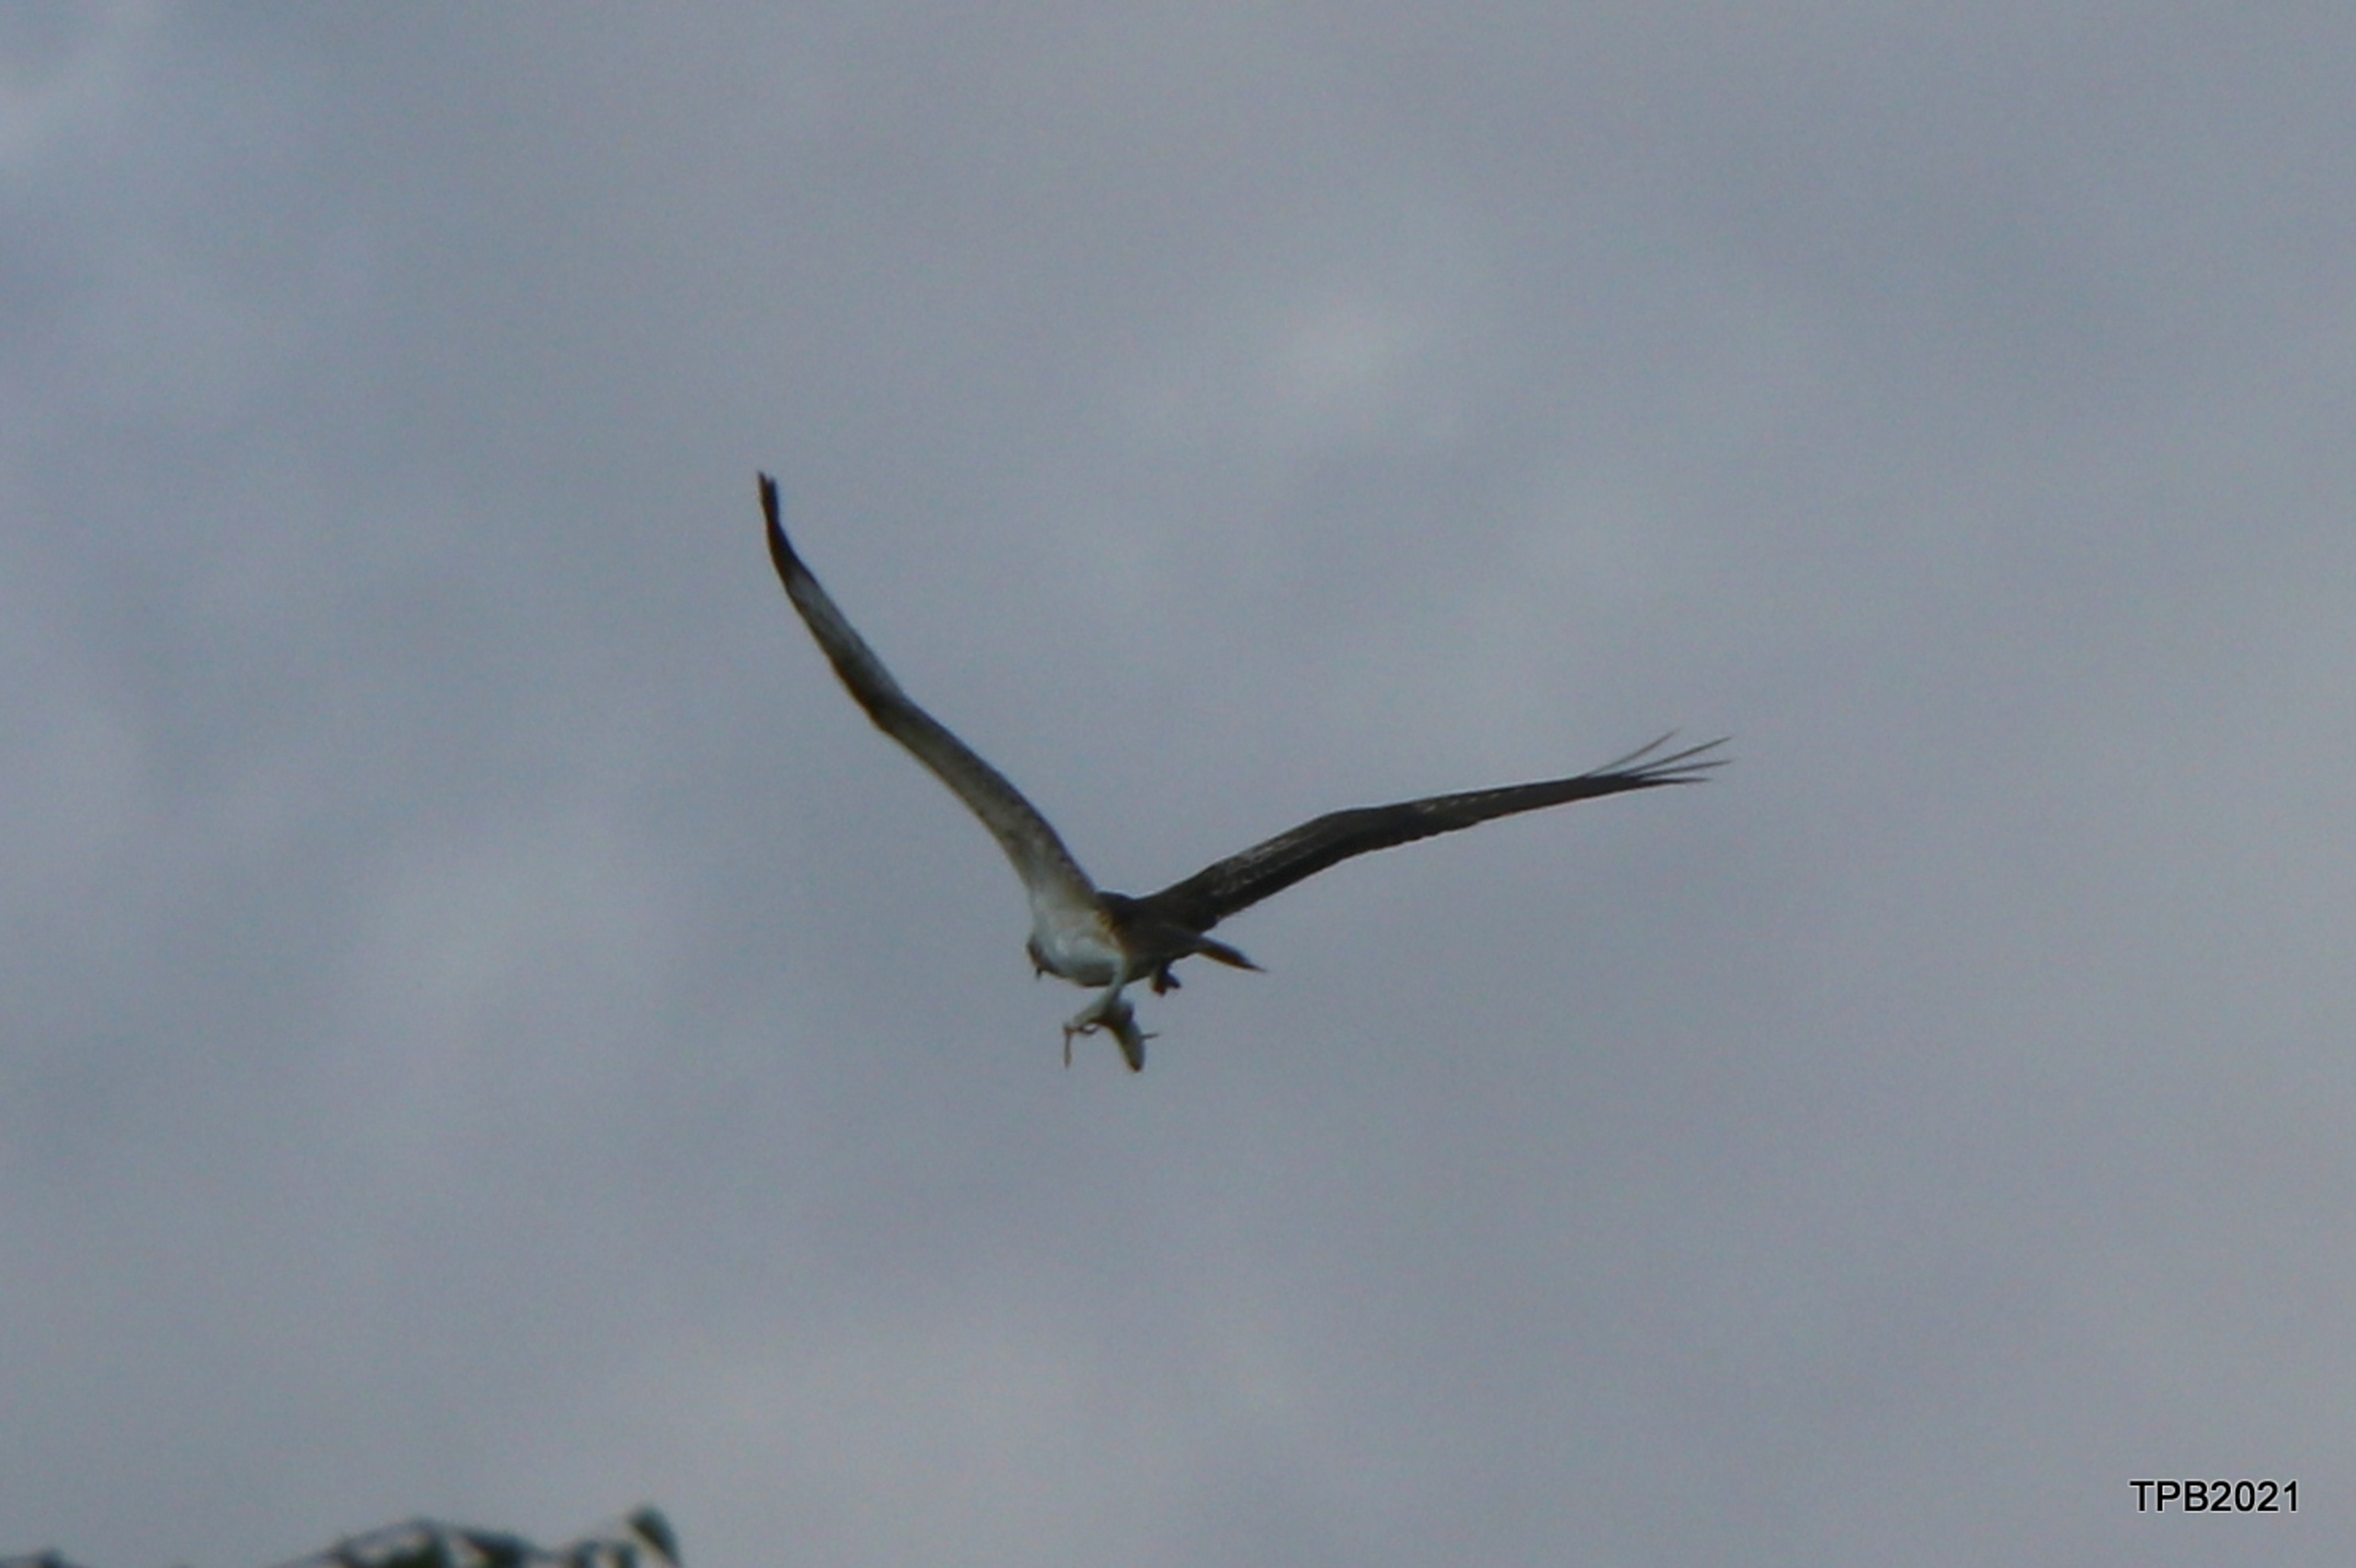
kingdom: Animalia
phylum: Chordata
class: Aves
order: Accipitriformes
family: Pandionidae
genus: Pandion
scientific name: Pandion haliaetus
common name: Fiskeørn
